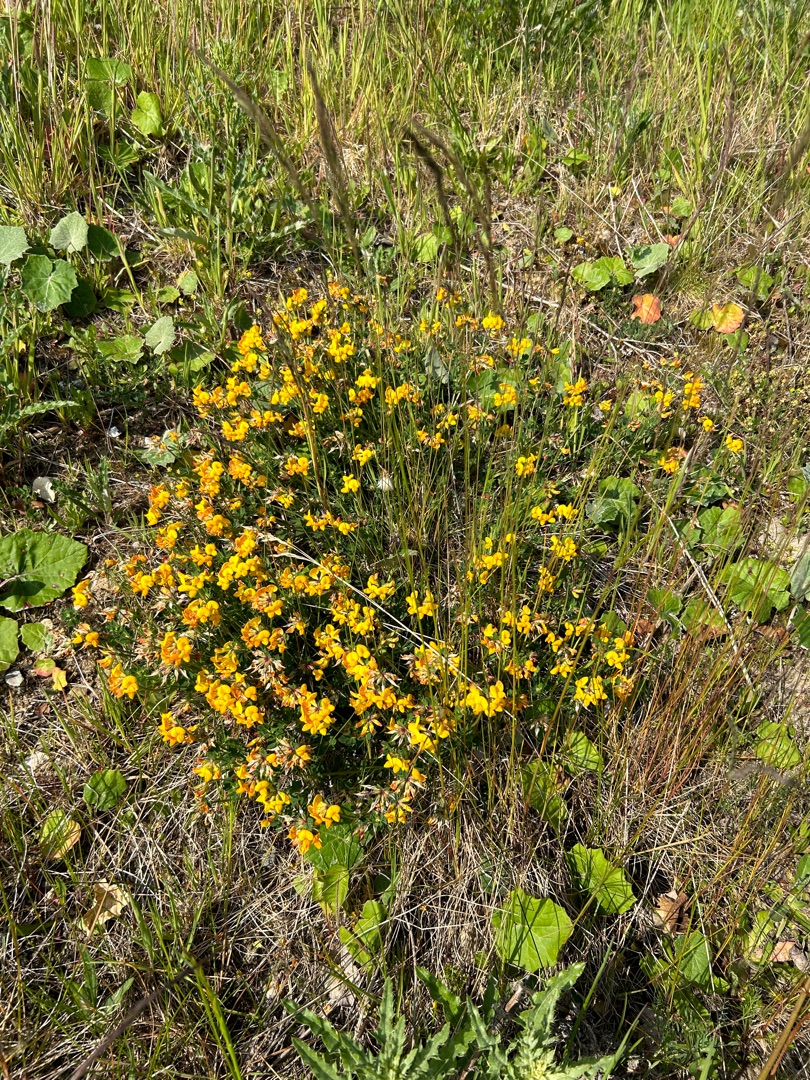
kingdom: Plantae
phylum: Tracheophyta
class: Magnoliopsida
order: Fabales
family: Fabaceae
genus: Lotus
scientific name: Lotus corniculatus
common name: Almindelig kællingetand
